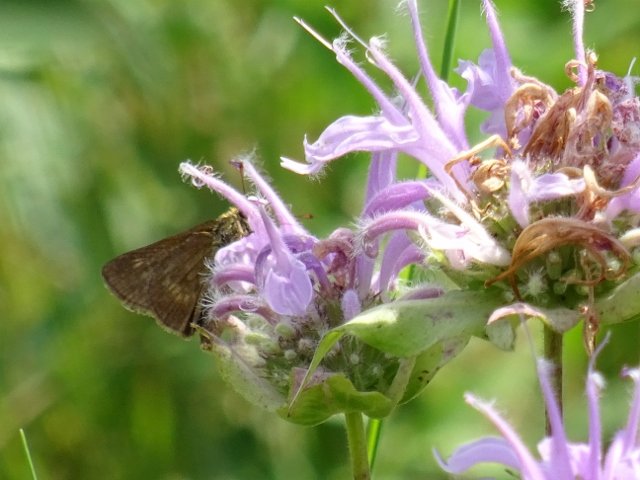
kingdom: Animalia
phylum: Arthropoda
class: Insecta
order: Lepidoptera
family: Hesperiidae
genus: Polites
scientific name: Polites egeremet
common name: Northern Broken-Dash
